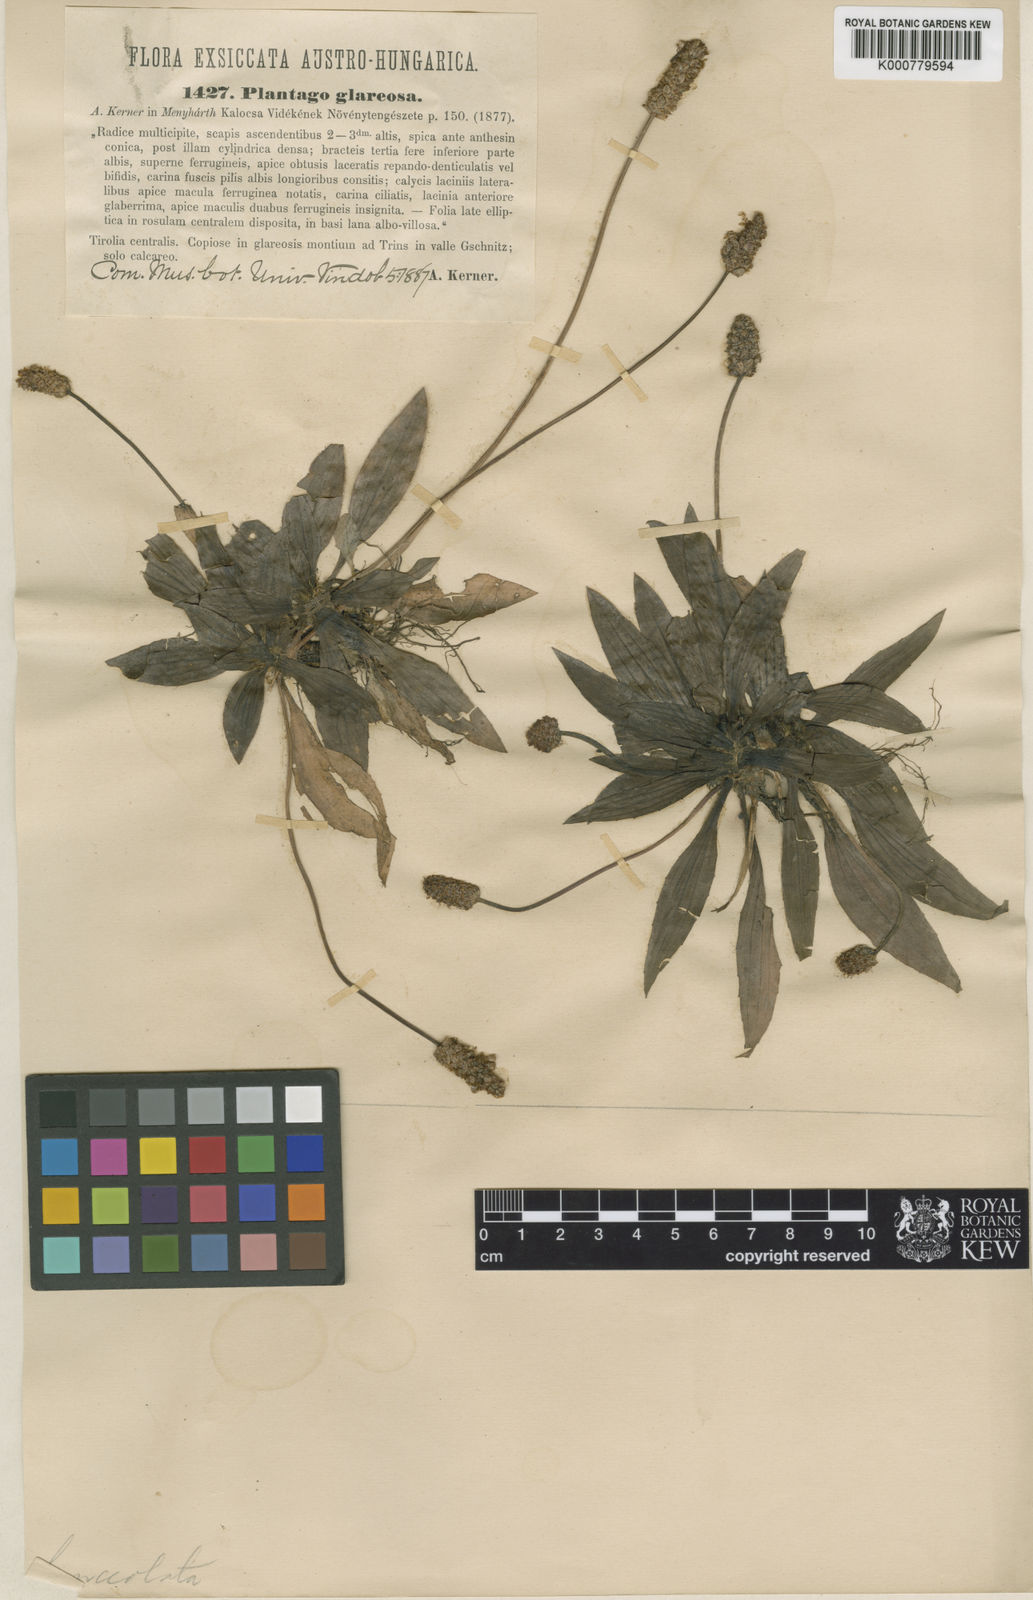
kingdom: Plantae
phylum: Tracheophyta
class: Magnoliopsida
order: Lamiales
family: Plantaginaceae
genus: Plantago
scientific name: Plantago lanceolata
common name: Ribwort plantain
